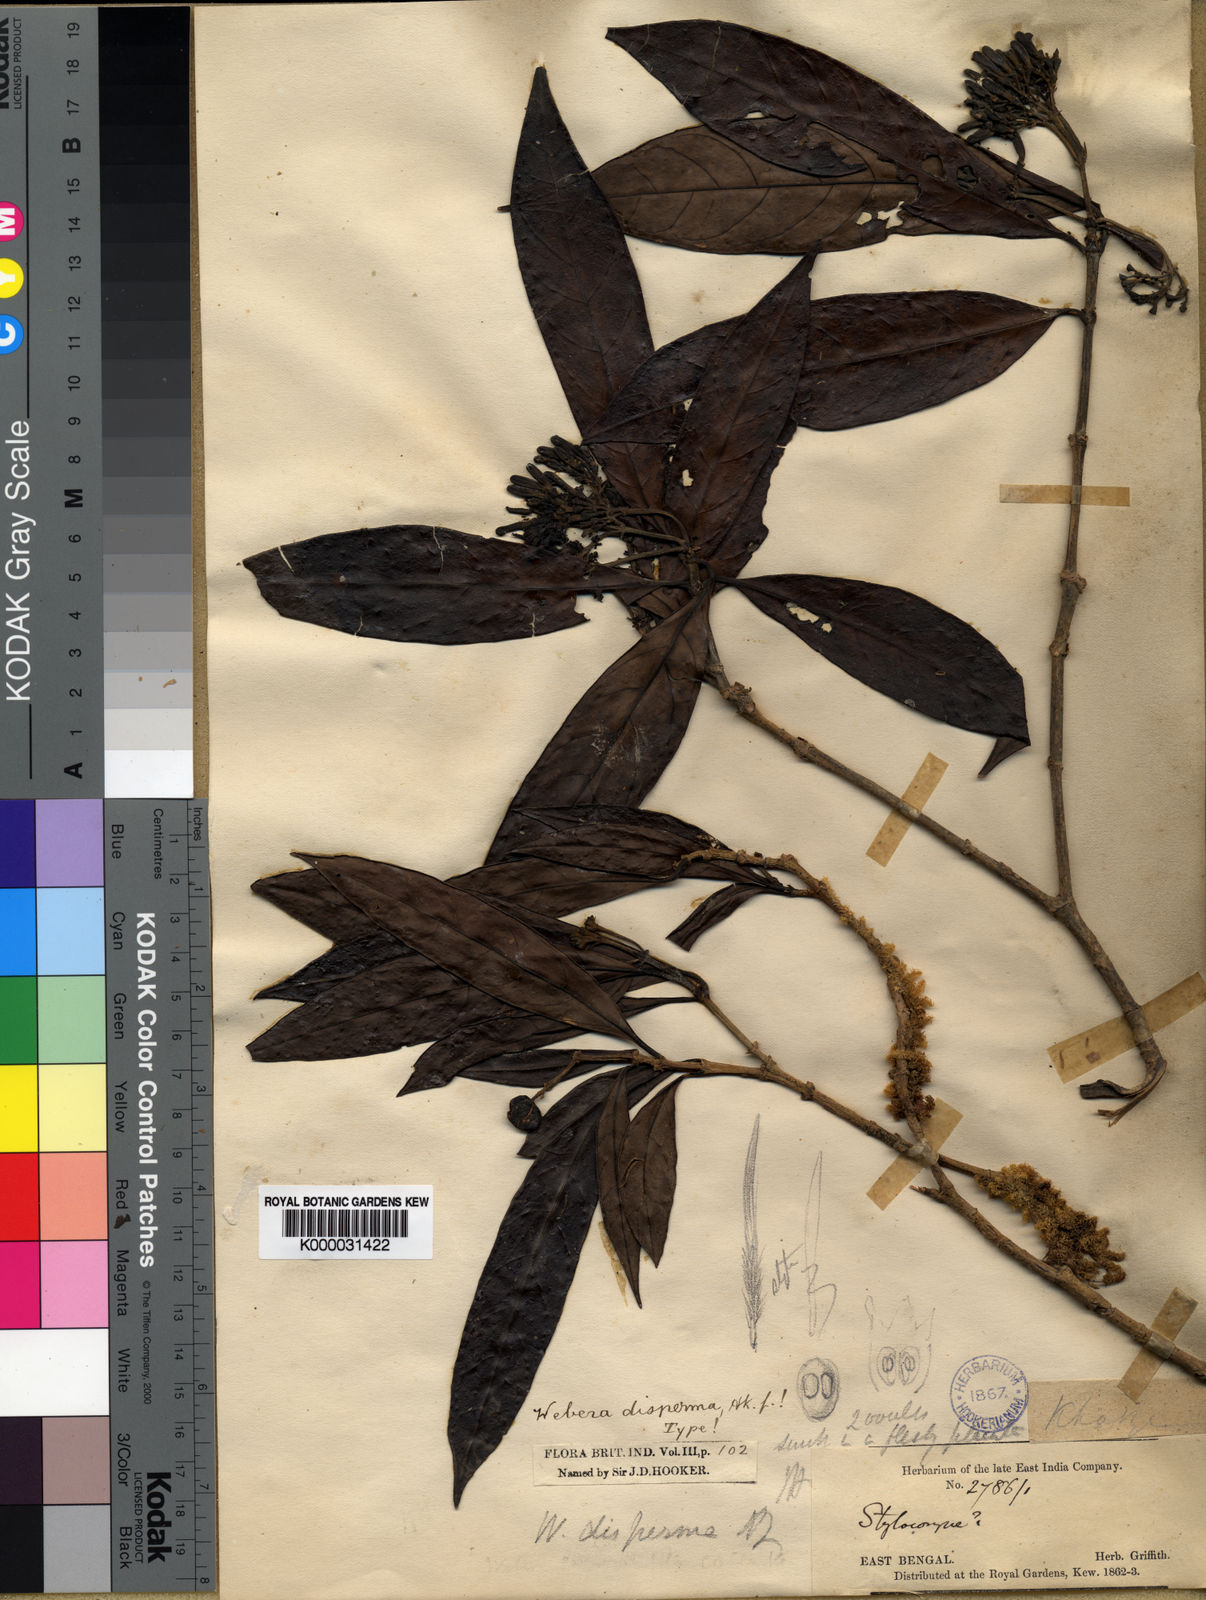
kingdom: Plantae
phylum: Tracheophyta
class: Magnoliopsida
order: Gentianales
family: Rubiaceae
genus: Tarenna
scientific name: Tarenna disperma
